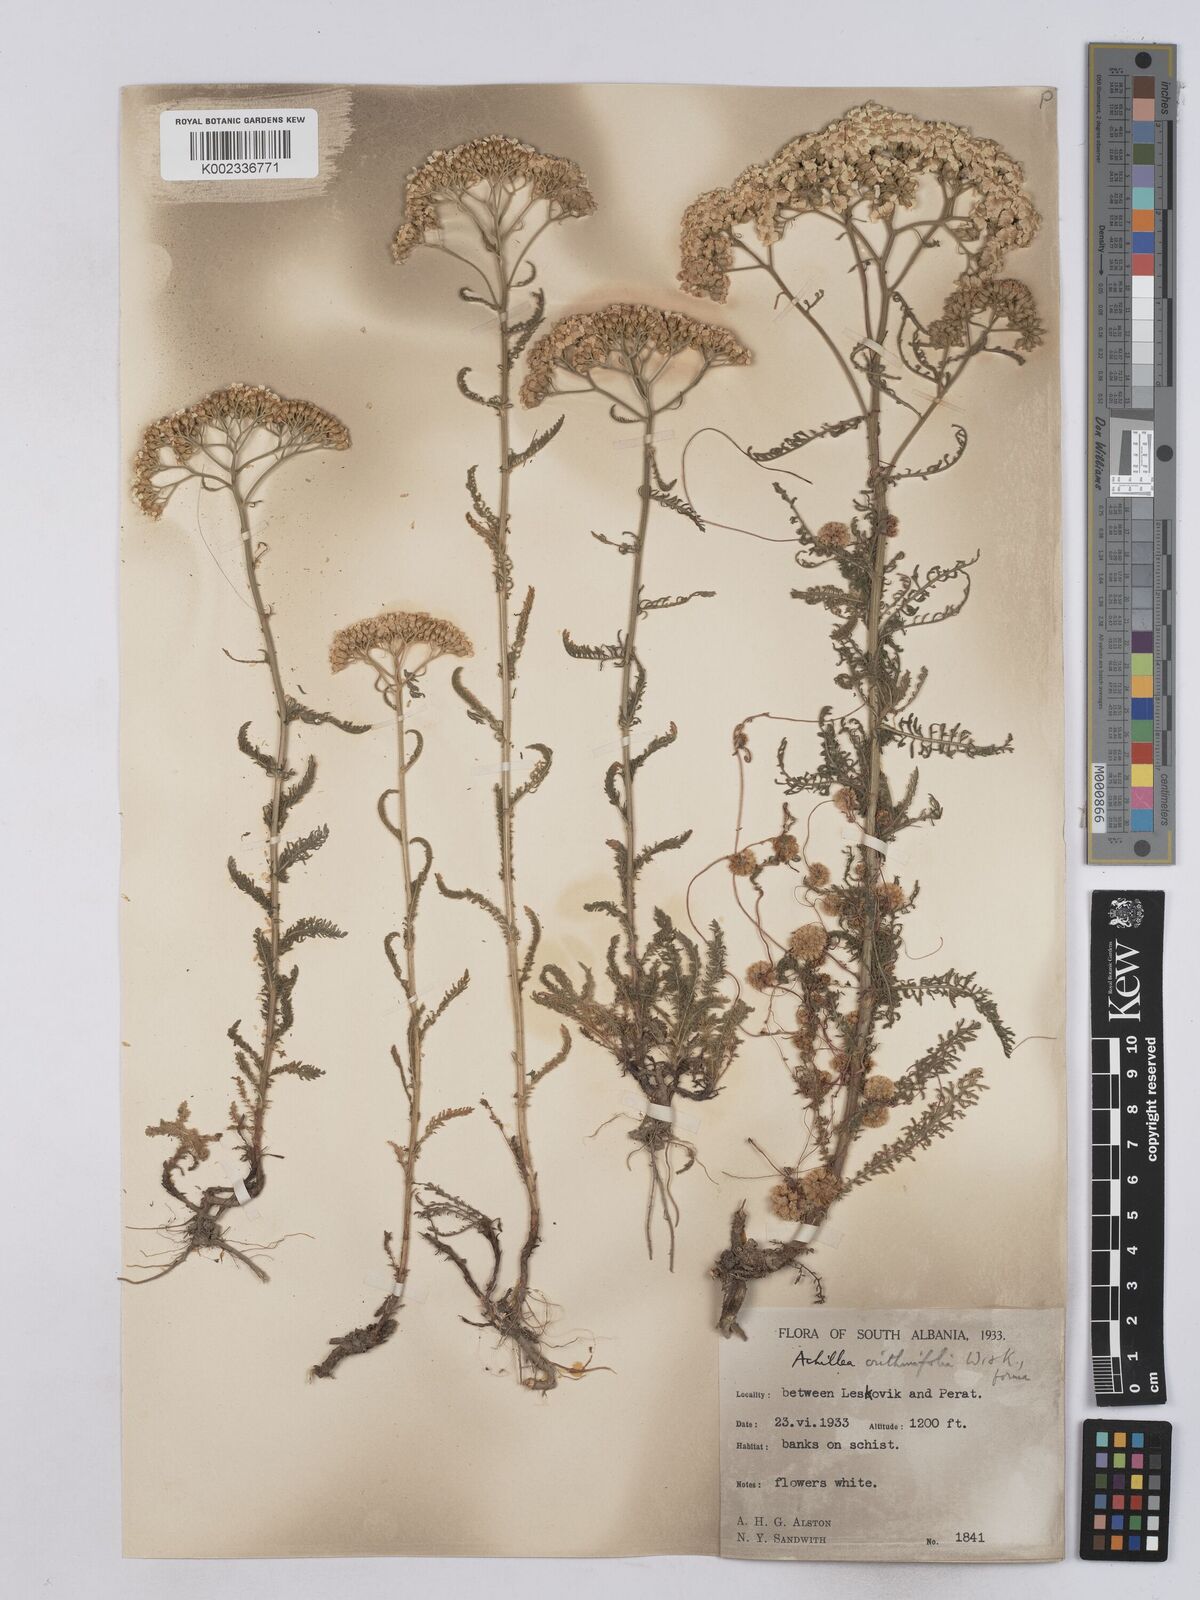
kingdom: Plantae
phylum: Tracheophyta
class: Magnoliopsida
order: Asterales
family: Asteraceae
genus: Achillea
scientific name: Achillea crithmifolia
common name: Yarrow
